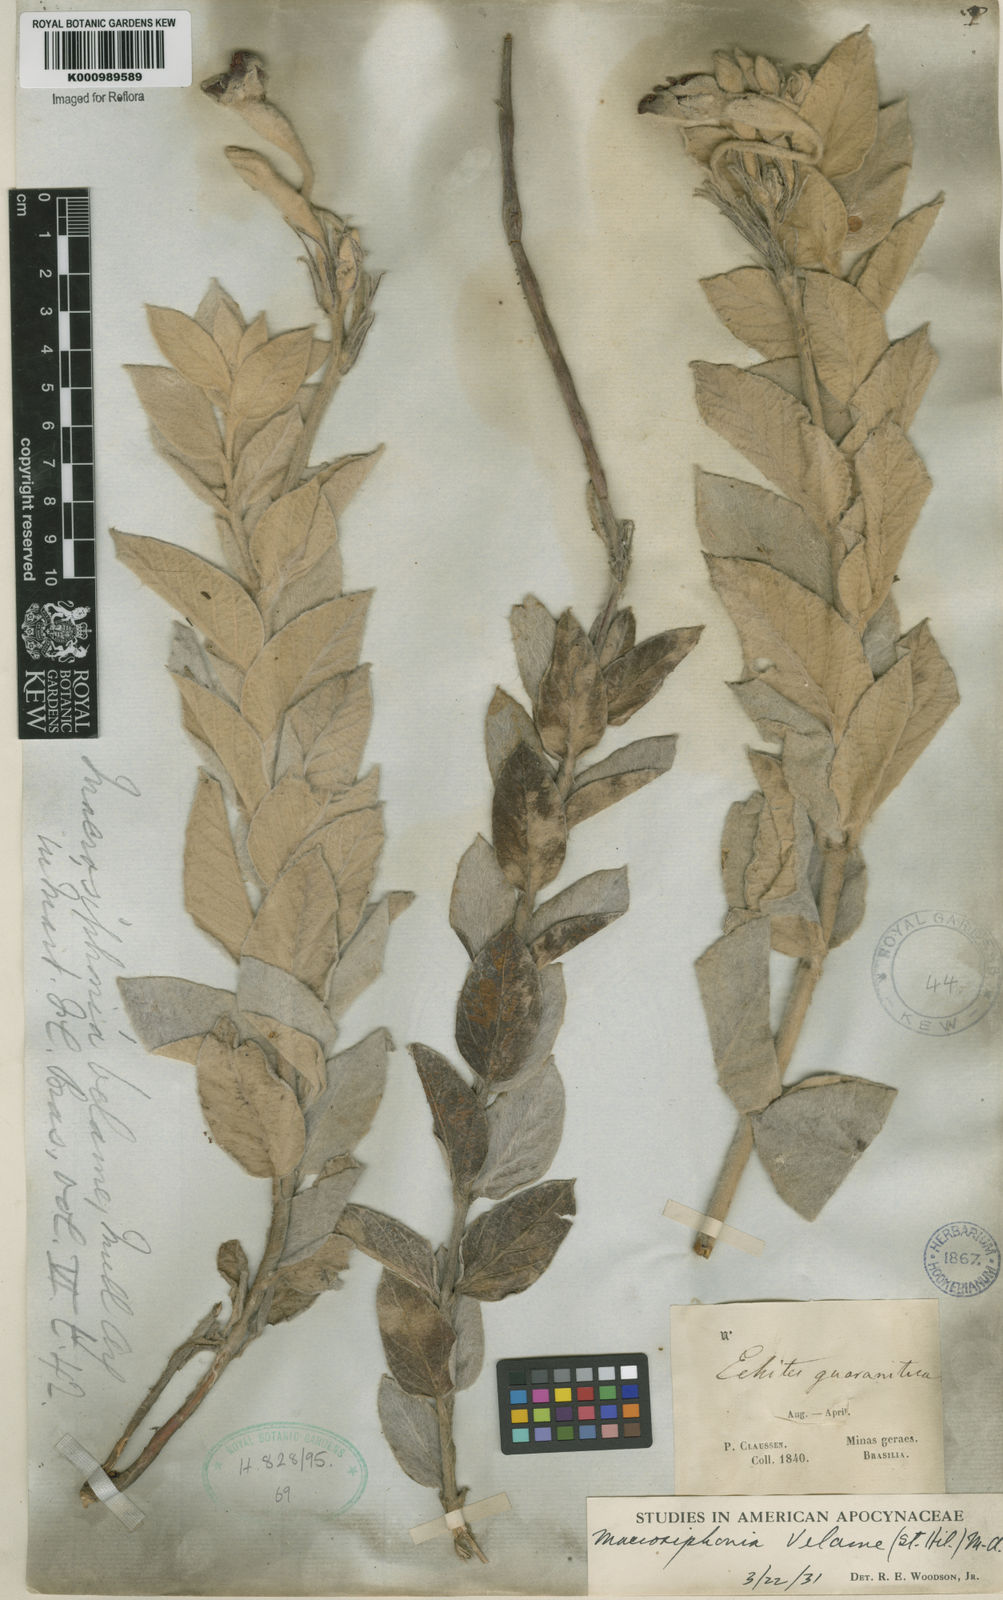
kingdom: Plantae
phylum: Tracheophyta
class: Magnoliopsida
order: Gentianales
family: Apocynaceae
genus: Mandevilla
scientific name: Mandevilla velame
